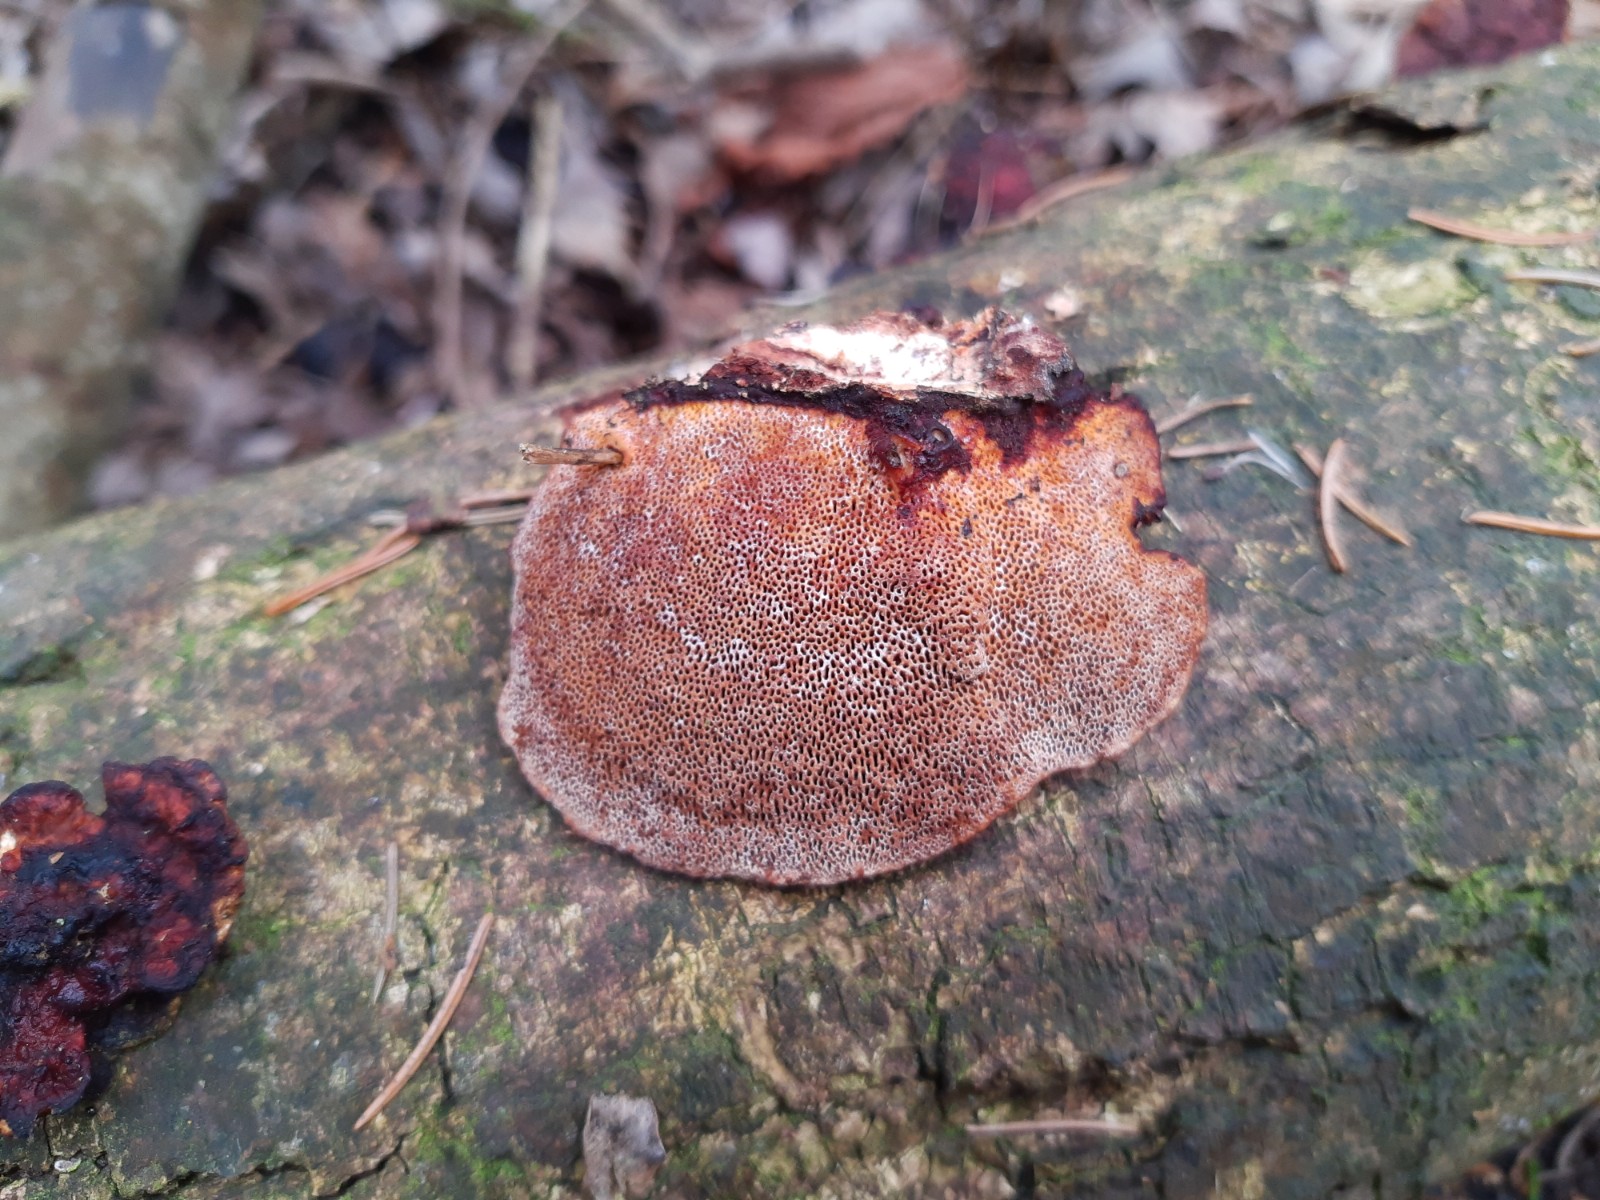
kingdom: Fungi
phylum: Basidiomycota
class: Agaricomycetes
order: Polyporales
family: Polyporaceae
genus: Daedaleopsis
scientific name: Daedaleopsis confragosa
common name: rødmende læderporesvamp
